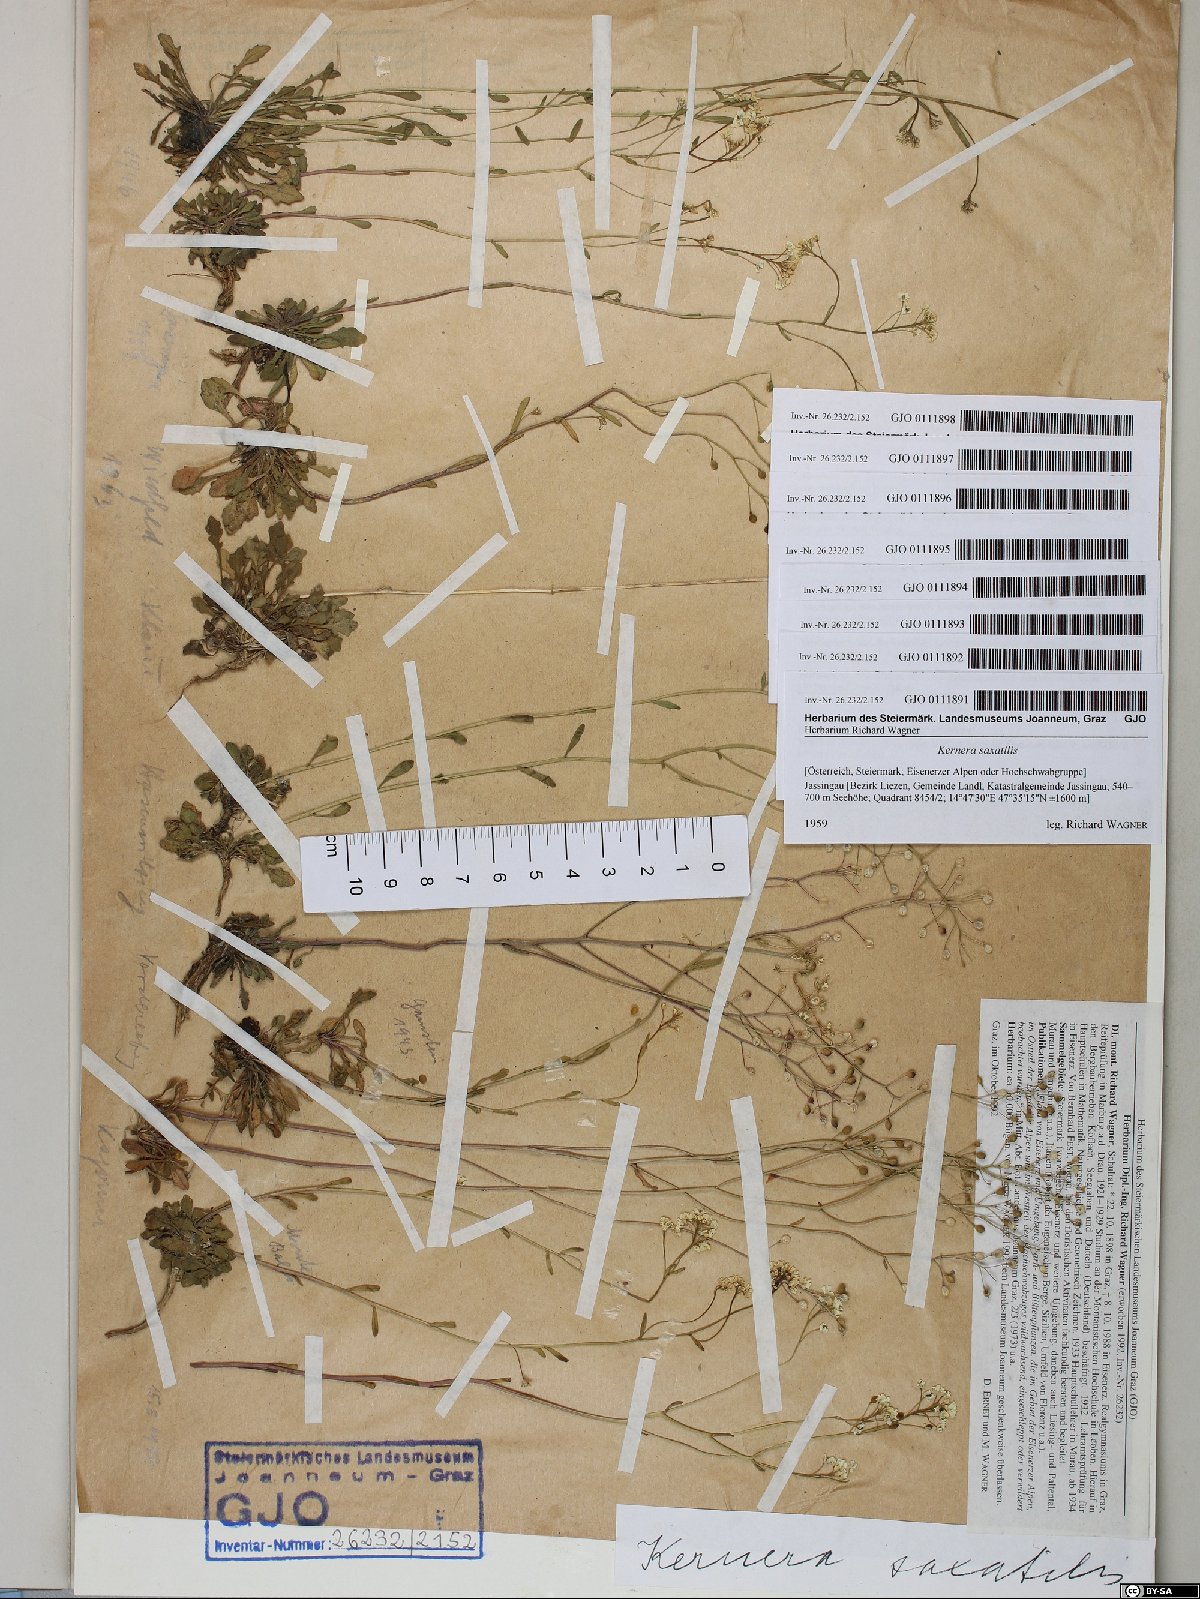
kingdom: Plantae
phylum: Tracheophyta
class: Magnoliopsida
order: Brassicales
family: Brassicaceae
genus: Kernera
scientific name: Kernera saxatilis
